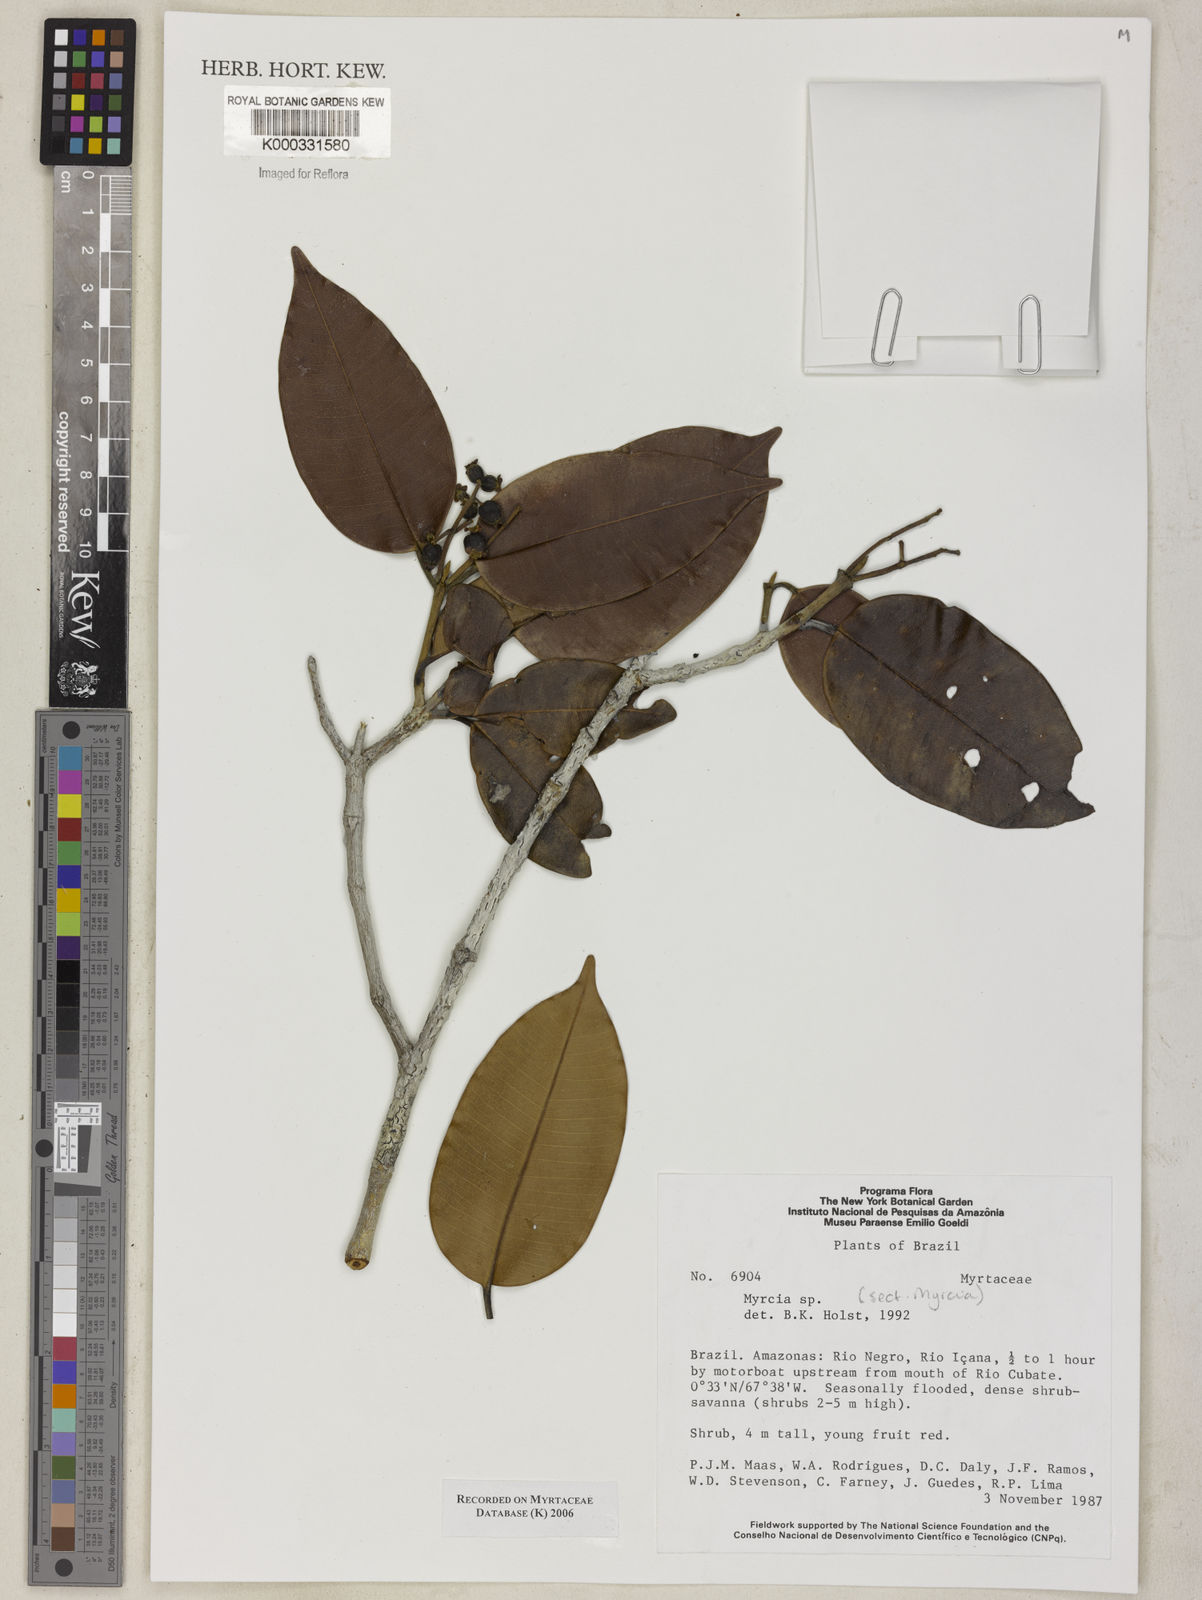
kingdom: Plantae
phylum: Tracheophyta
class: Magnoliopsida
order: Myrtales
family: Myrtaceae
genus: Myrcia
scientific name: Myrcia
